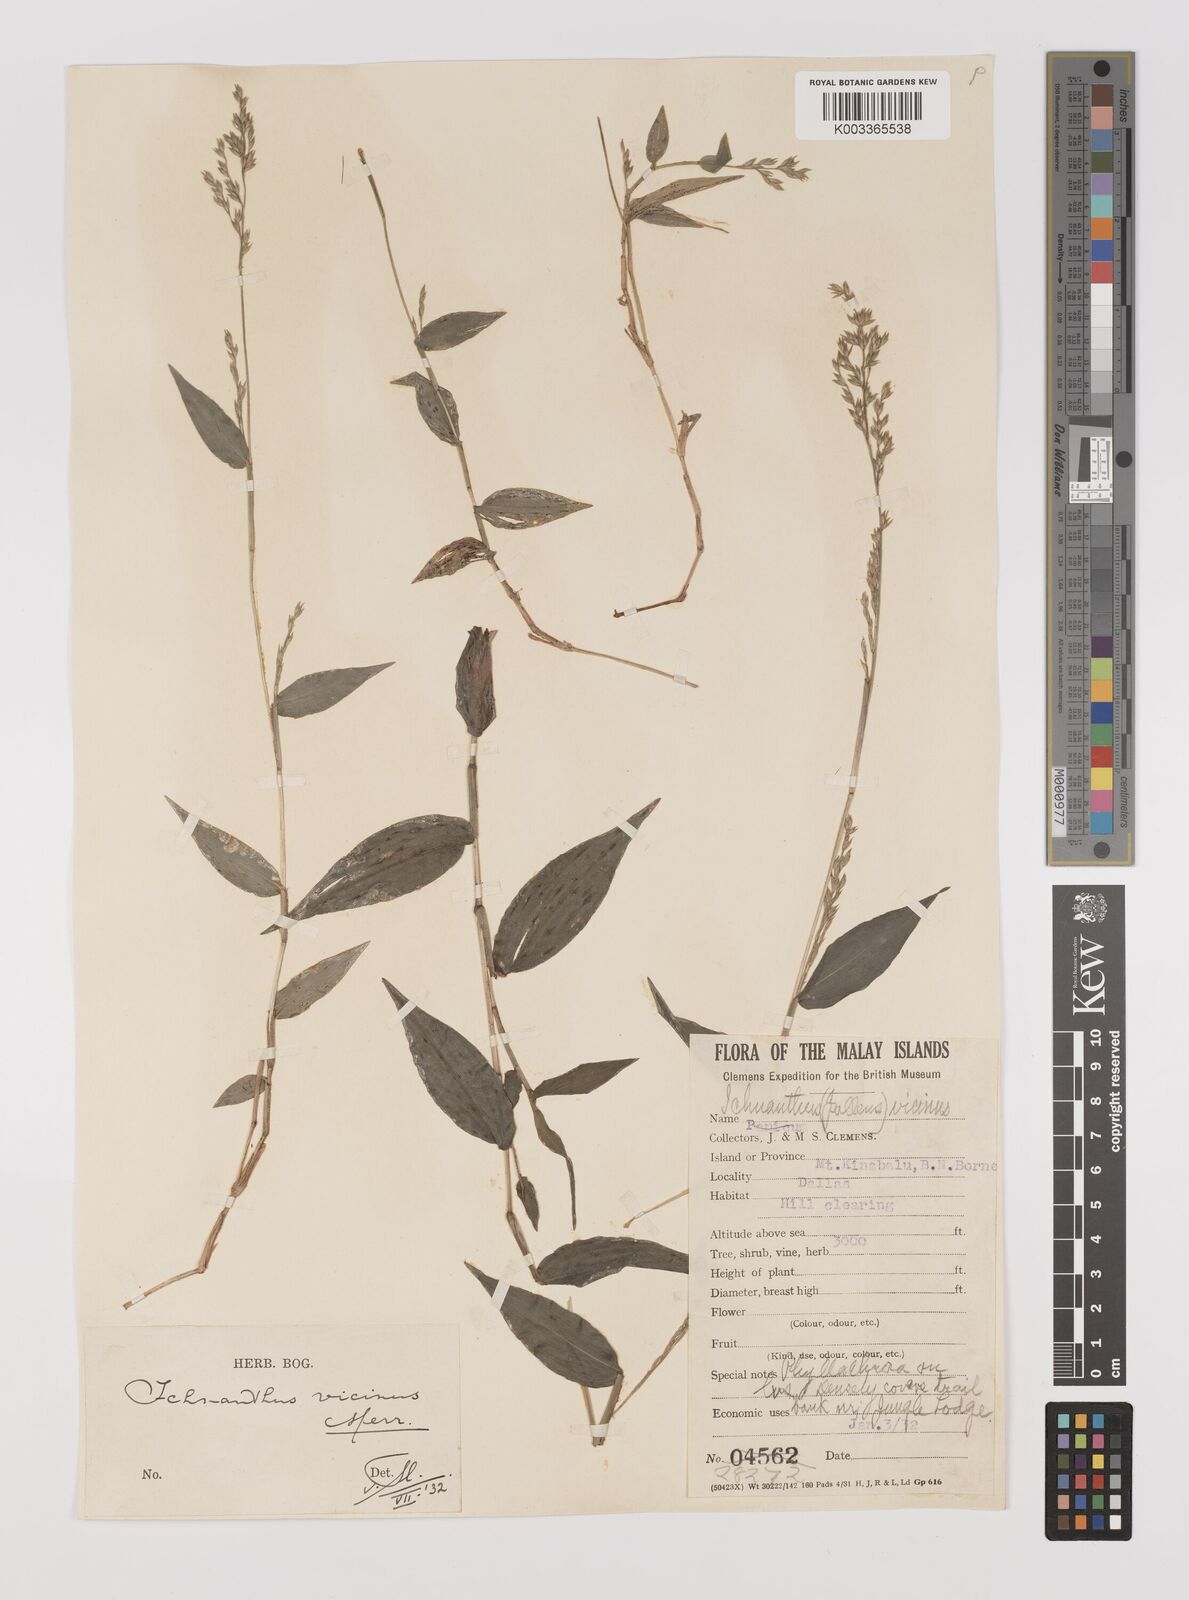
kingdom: Plantae
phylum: Tracheophyta
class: Liliopsida
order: Poales
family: Poaceae
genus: Ichnanthus
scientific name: Ichnanthus pallens
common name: Water grass
